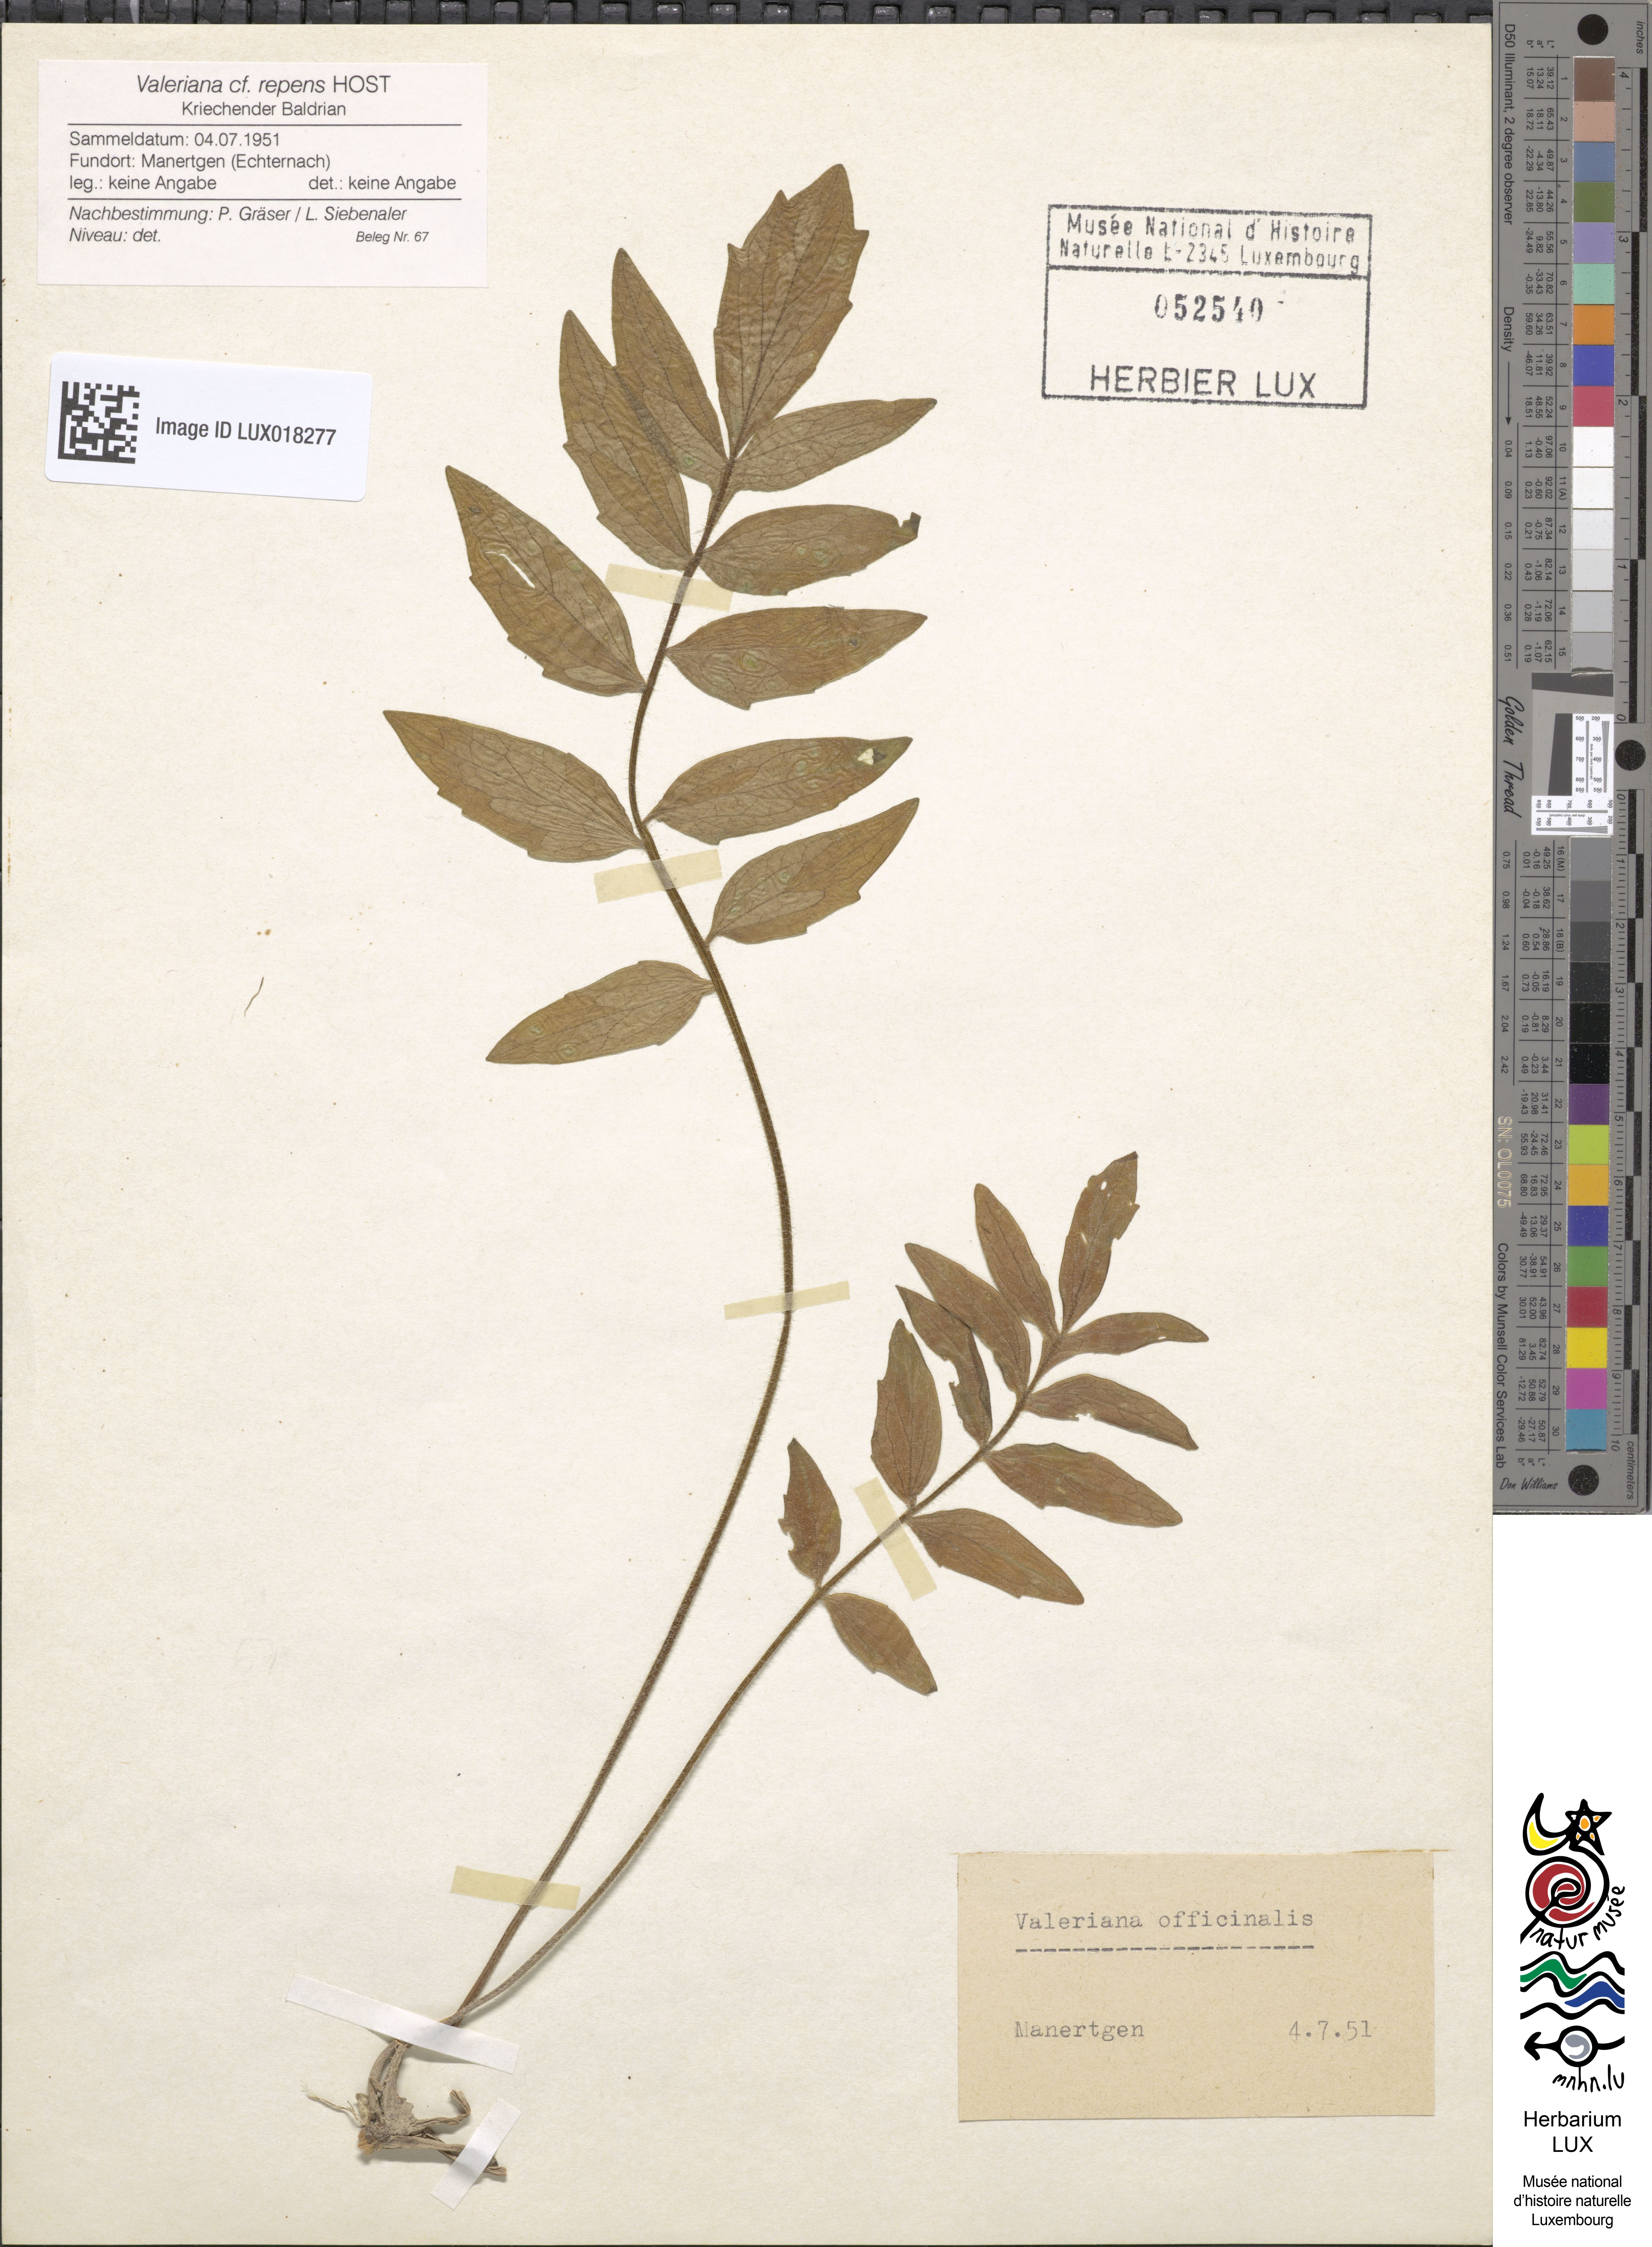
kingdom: Plantae
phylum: Tracheophyta
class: Magnoliopsida
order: Dipsacales
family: Caprifoliaceae
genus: Valeriana
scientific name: Valeriana excelsa
